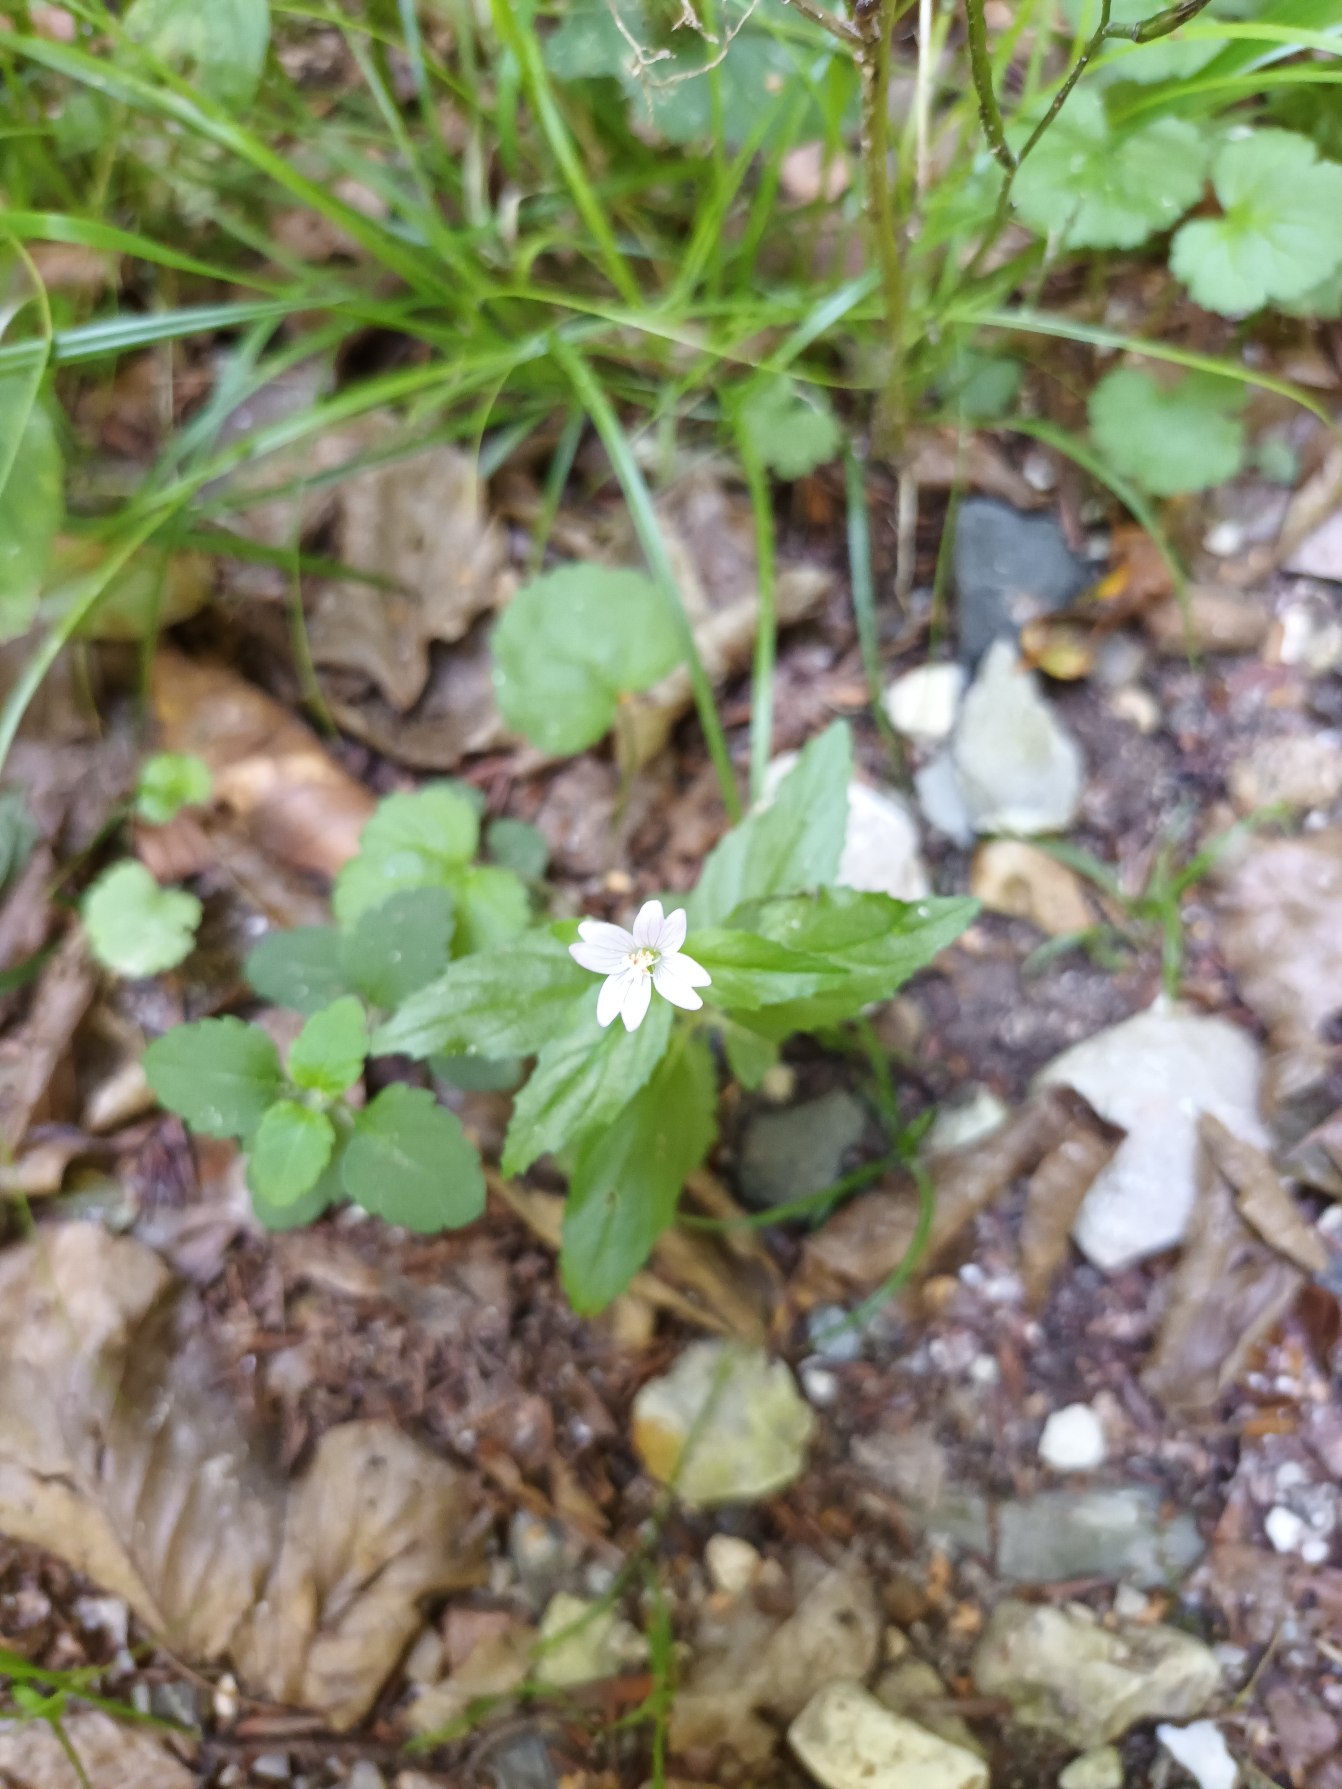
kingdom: Plantae
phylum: Tracheophyta
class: Magnoliopsida
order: Myrtales
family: Onagraceae
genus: Epilobium
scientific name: Epilobium montanum
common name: Glat dueurt
